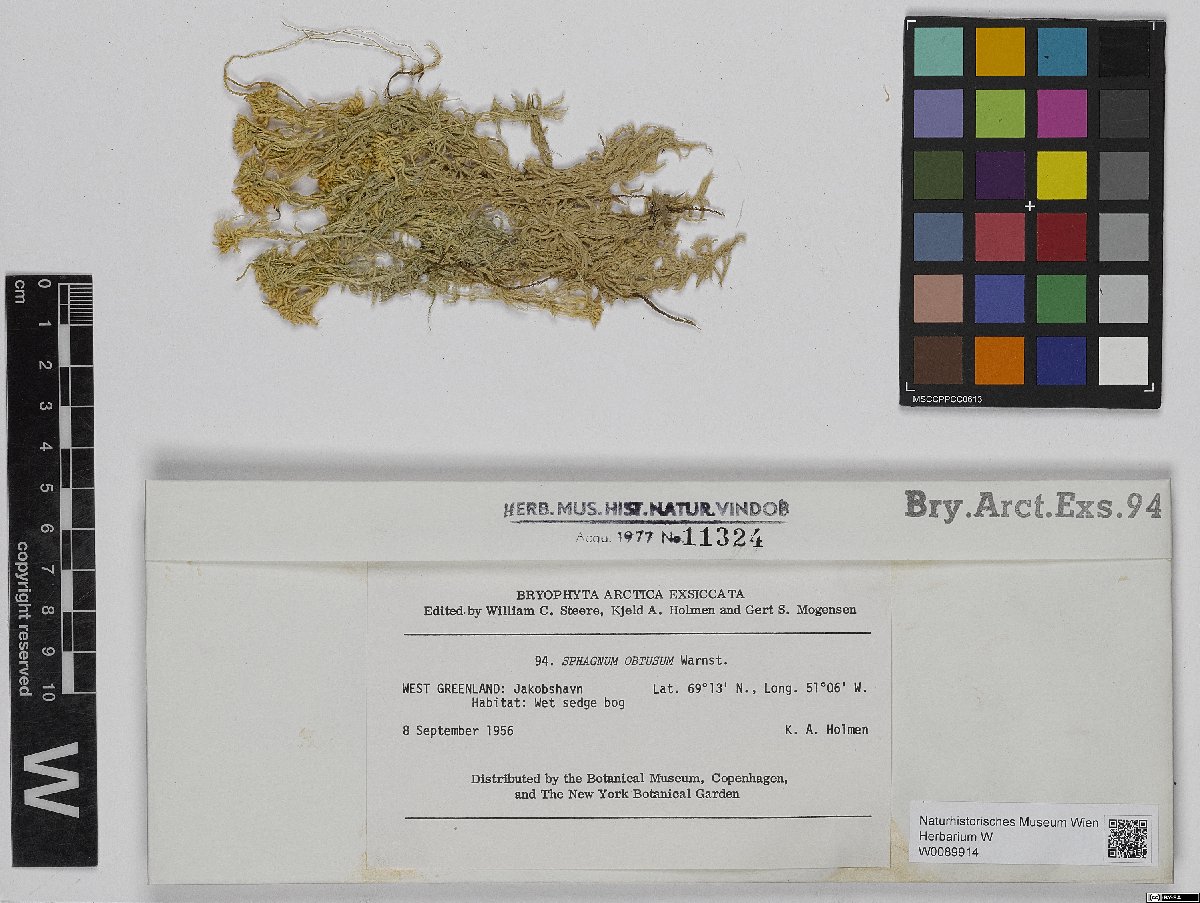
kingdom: Plantae
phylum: Bryophyta
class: Sphagnopsida
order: Sphagnales
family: Sphagnaceae
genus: Sphagnum
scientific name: Sphagnum obtusum
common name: Obtuse peat moss
